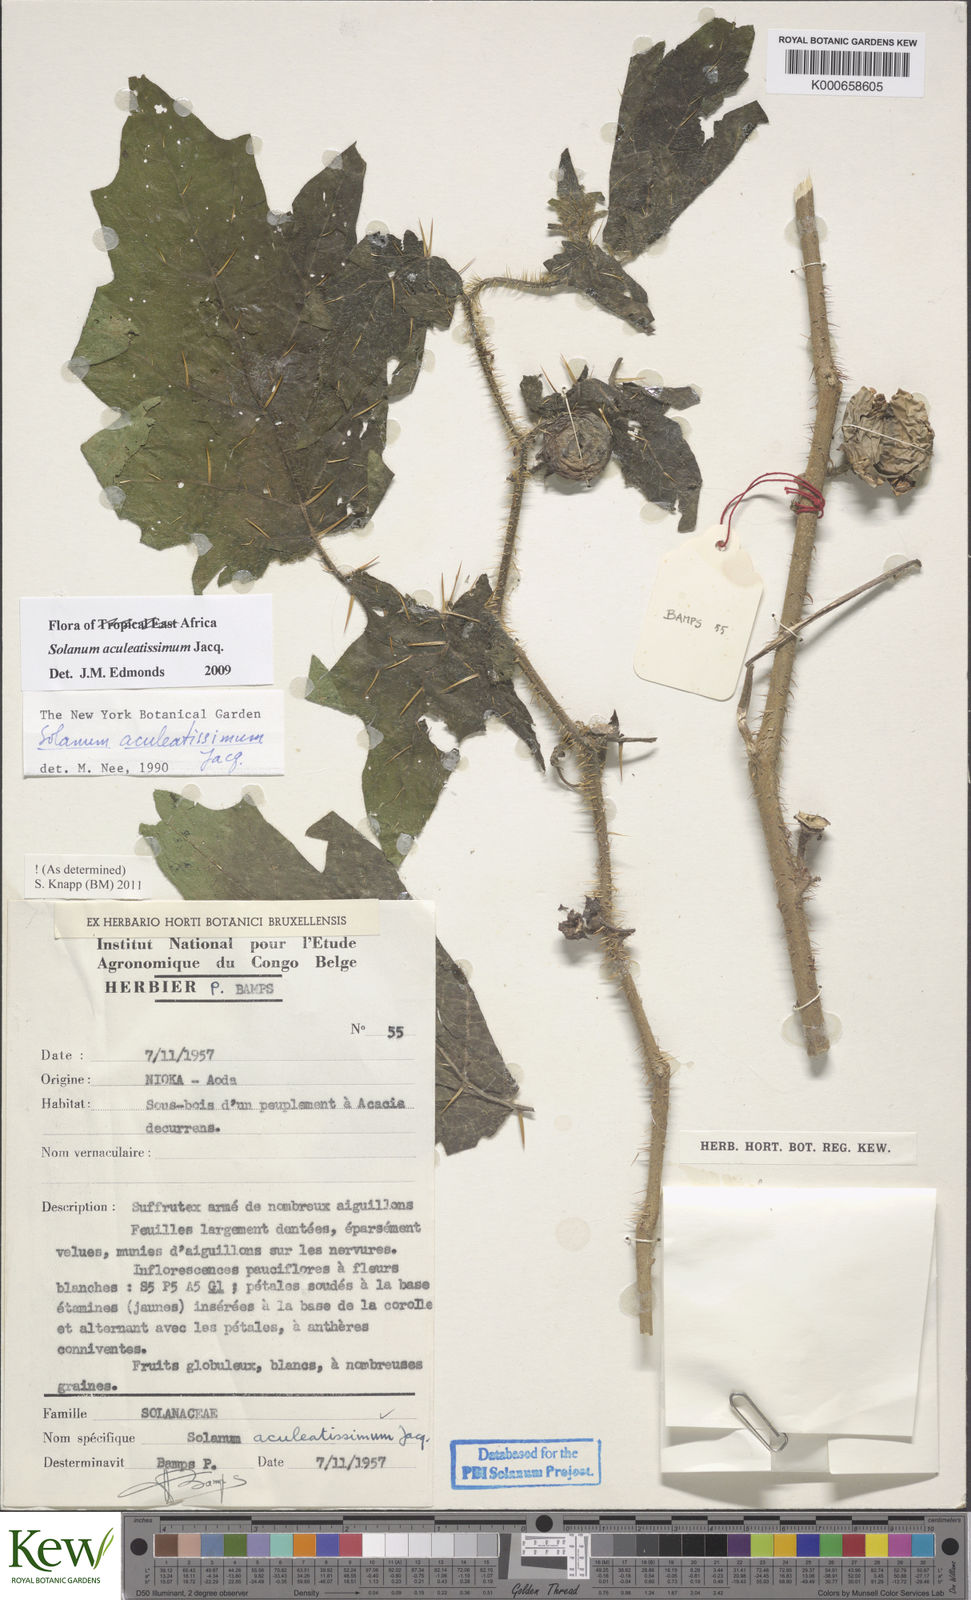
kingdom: Plantae
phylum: Tracheophyta
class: Magnoliopsida
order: Solanales
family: Solanaceae
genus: Solanum
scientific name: Solanum aculeatissimum
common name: Dutch eggplant
